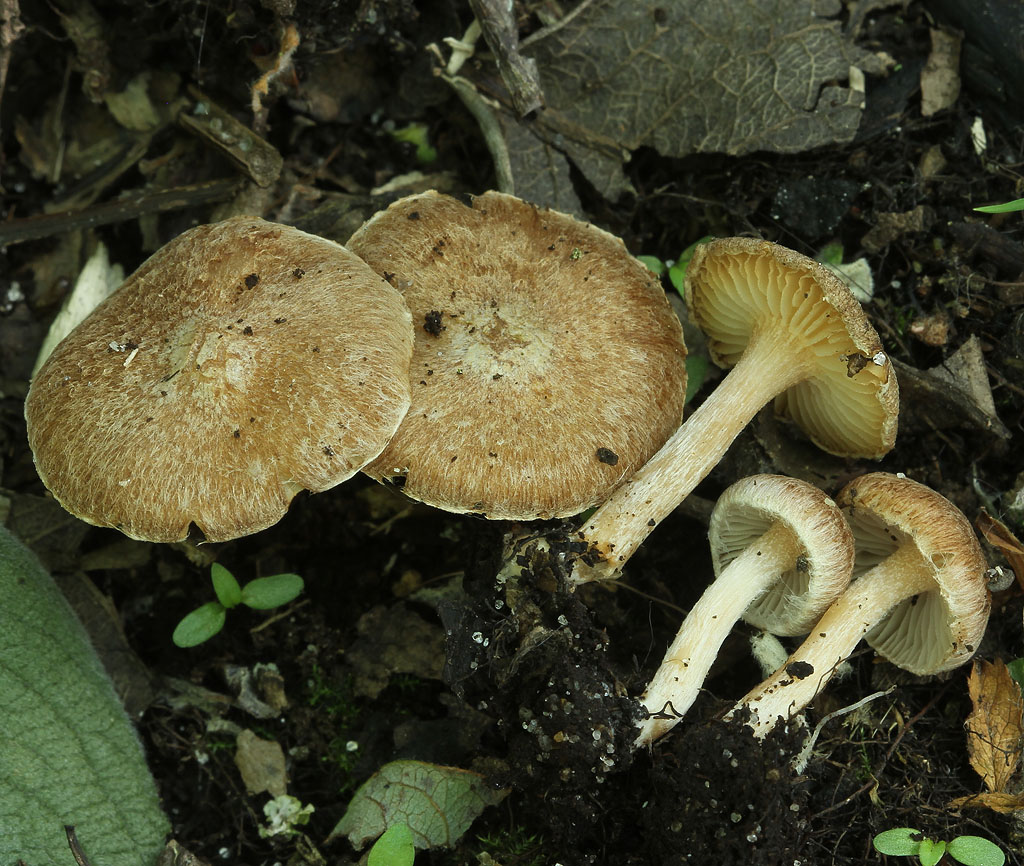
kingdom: Fungi
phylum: Basidiomycota
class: Agaricomycetes
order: Agaricales
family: Inocybaceae
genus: Inocybe
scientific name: Inocybe sindonia
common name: bleg trævlhat
